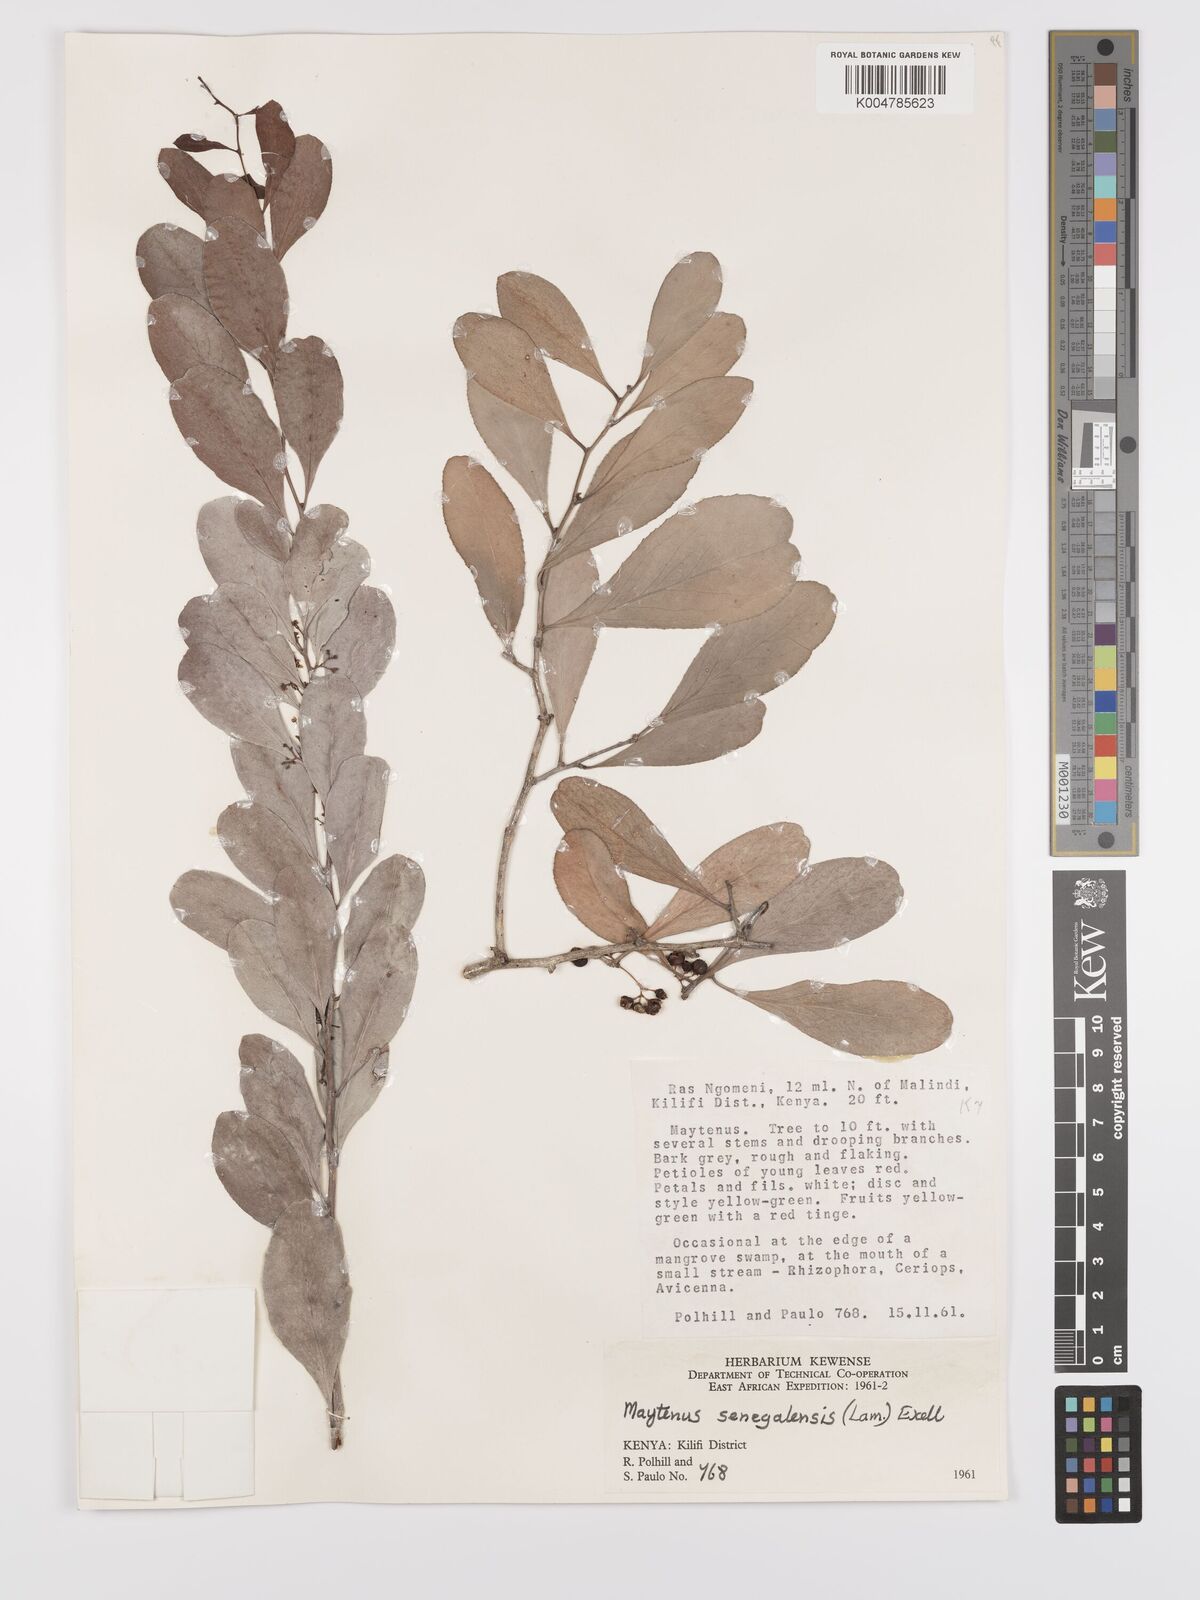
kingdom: Plantae
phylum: Tracheophyta
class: Magnoliopsida
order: Celastrales
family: Celastraceae
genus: Gymnosporia
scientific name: Gymnosporia senegalensis
